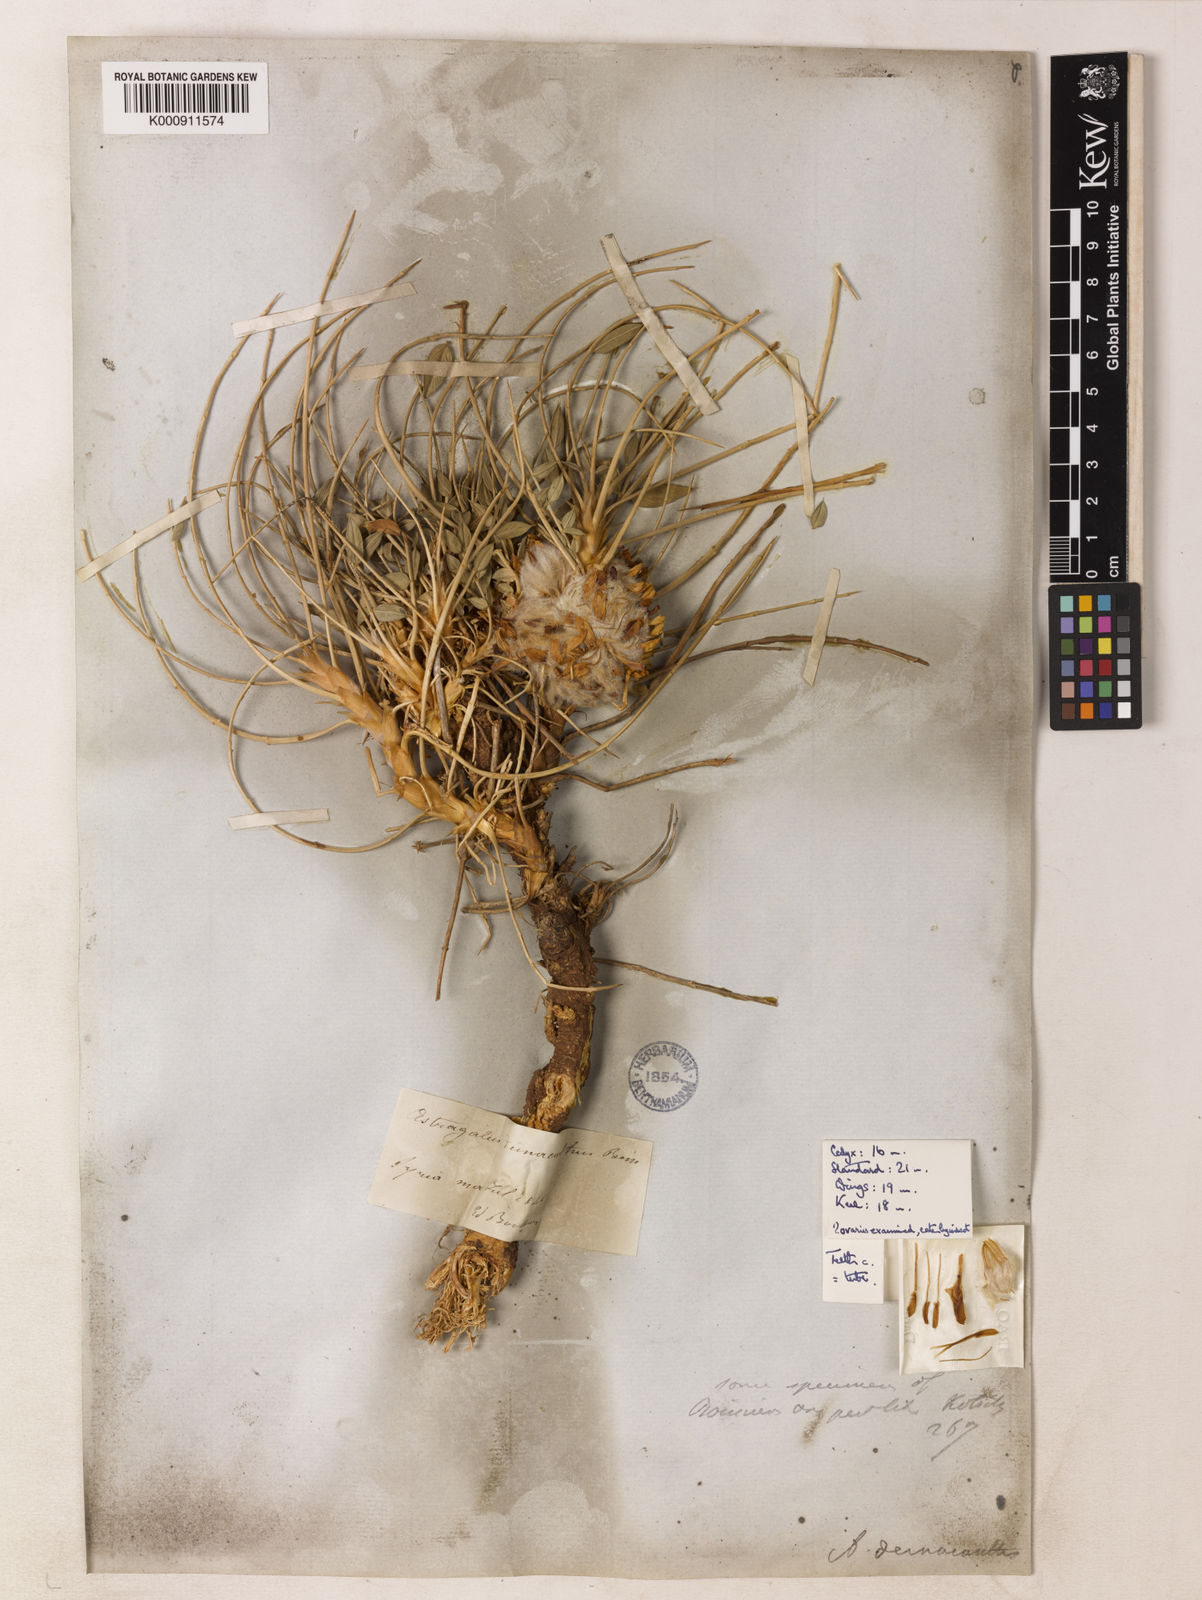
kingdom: Plantae
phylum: Tracheophyta
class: Magnoliopsida
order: Fabales
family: Fabaceae
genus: Astragalus
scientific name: Astragalus oleifolius
